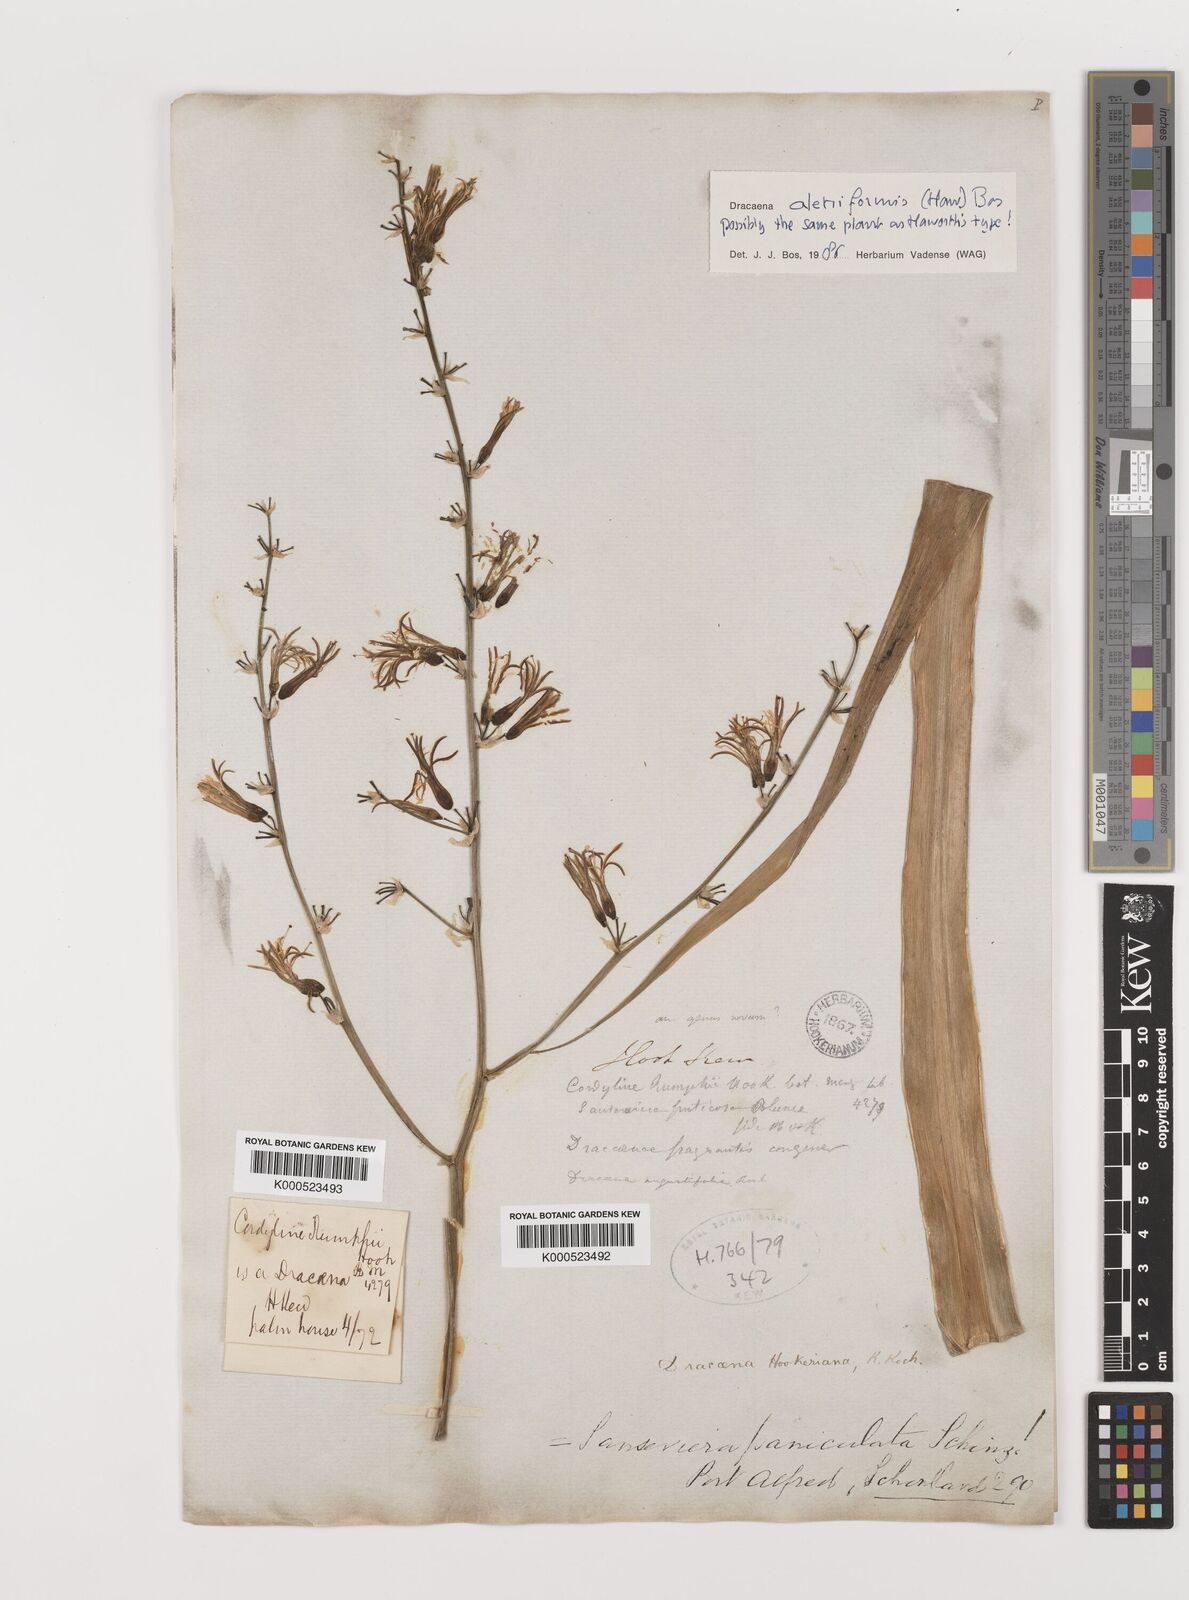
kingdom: Plantae
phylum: Tracheophyta
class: Liliopsida
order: Asparagales
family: Asparagaceae
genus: Dracaena
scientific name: Dracaena aletriformis
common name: Large-leaved dragon tree
